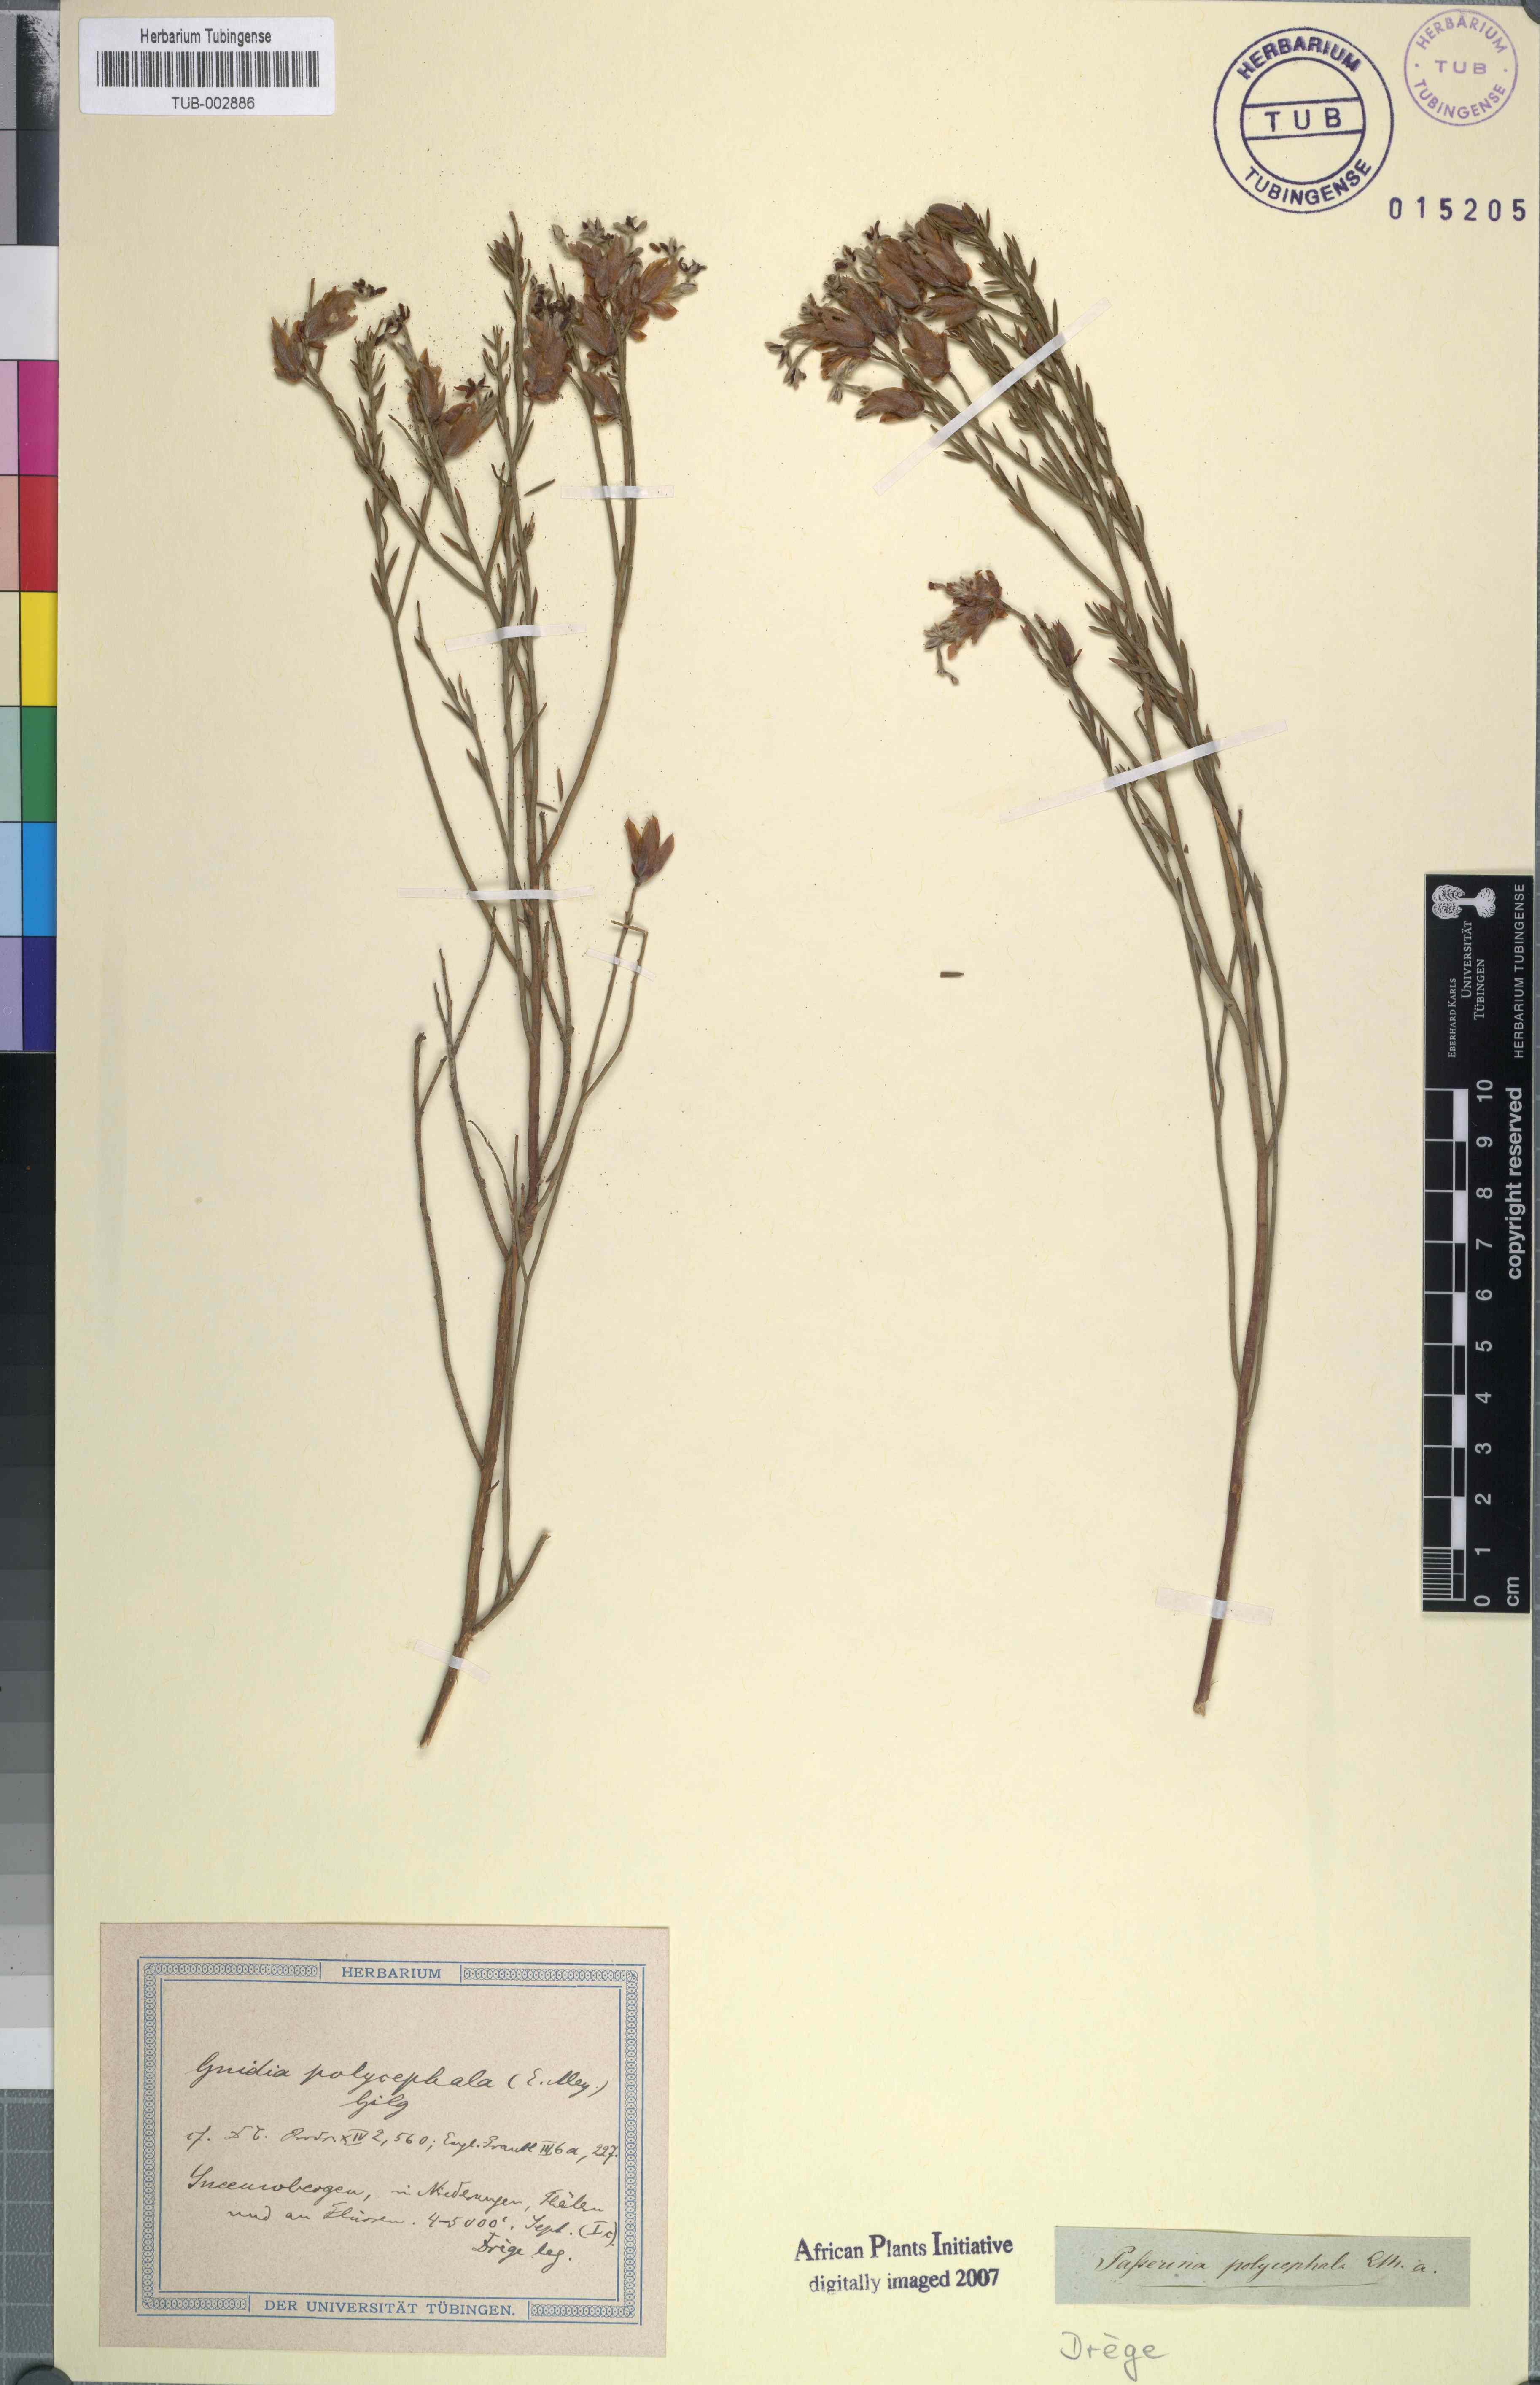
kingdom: Plantae
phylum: Tracheophyta
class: Magnoliopsida
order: Malvales
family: Thymelaeaceae
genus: Gnidia
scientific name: Gnidia polycephala
